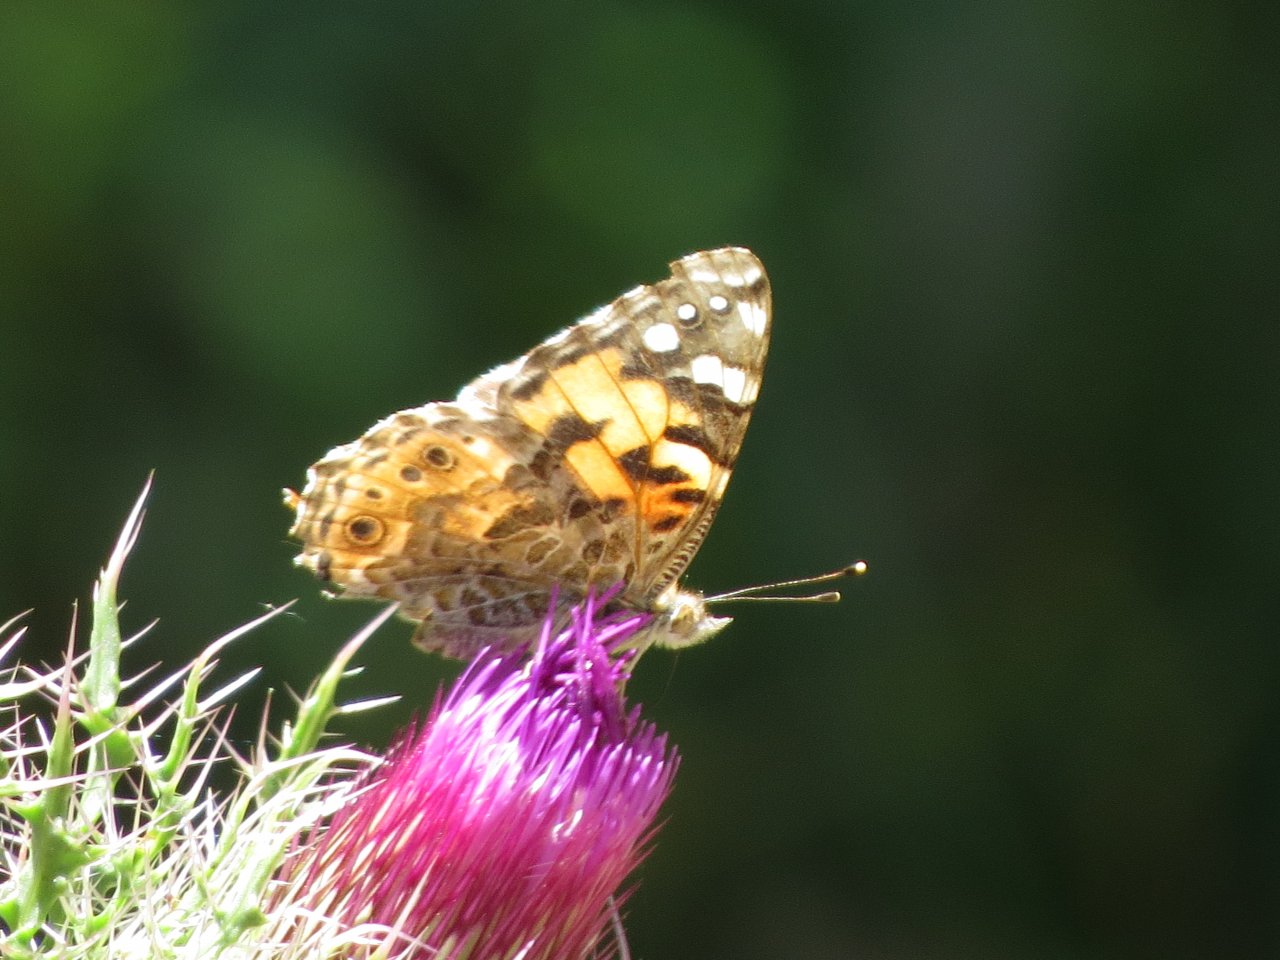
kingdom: Animalia
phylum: Arthropoda
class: Insecta
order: Lepidoptera
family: Nymphalidae
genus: Vanessa
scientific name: Vanessa cardui
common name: Painted Lady
